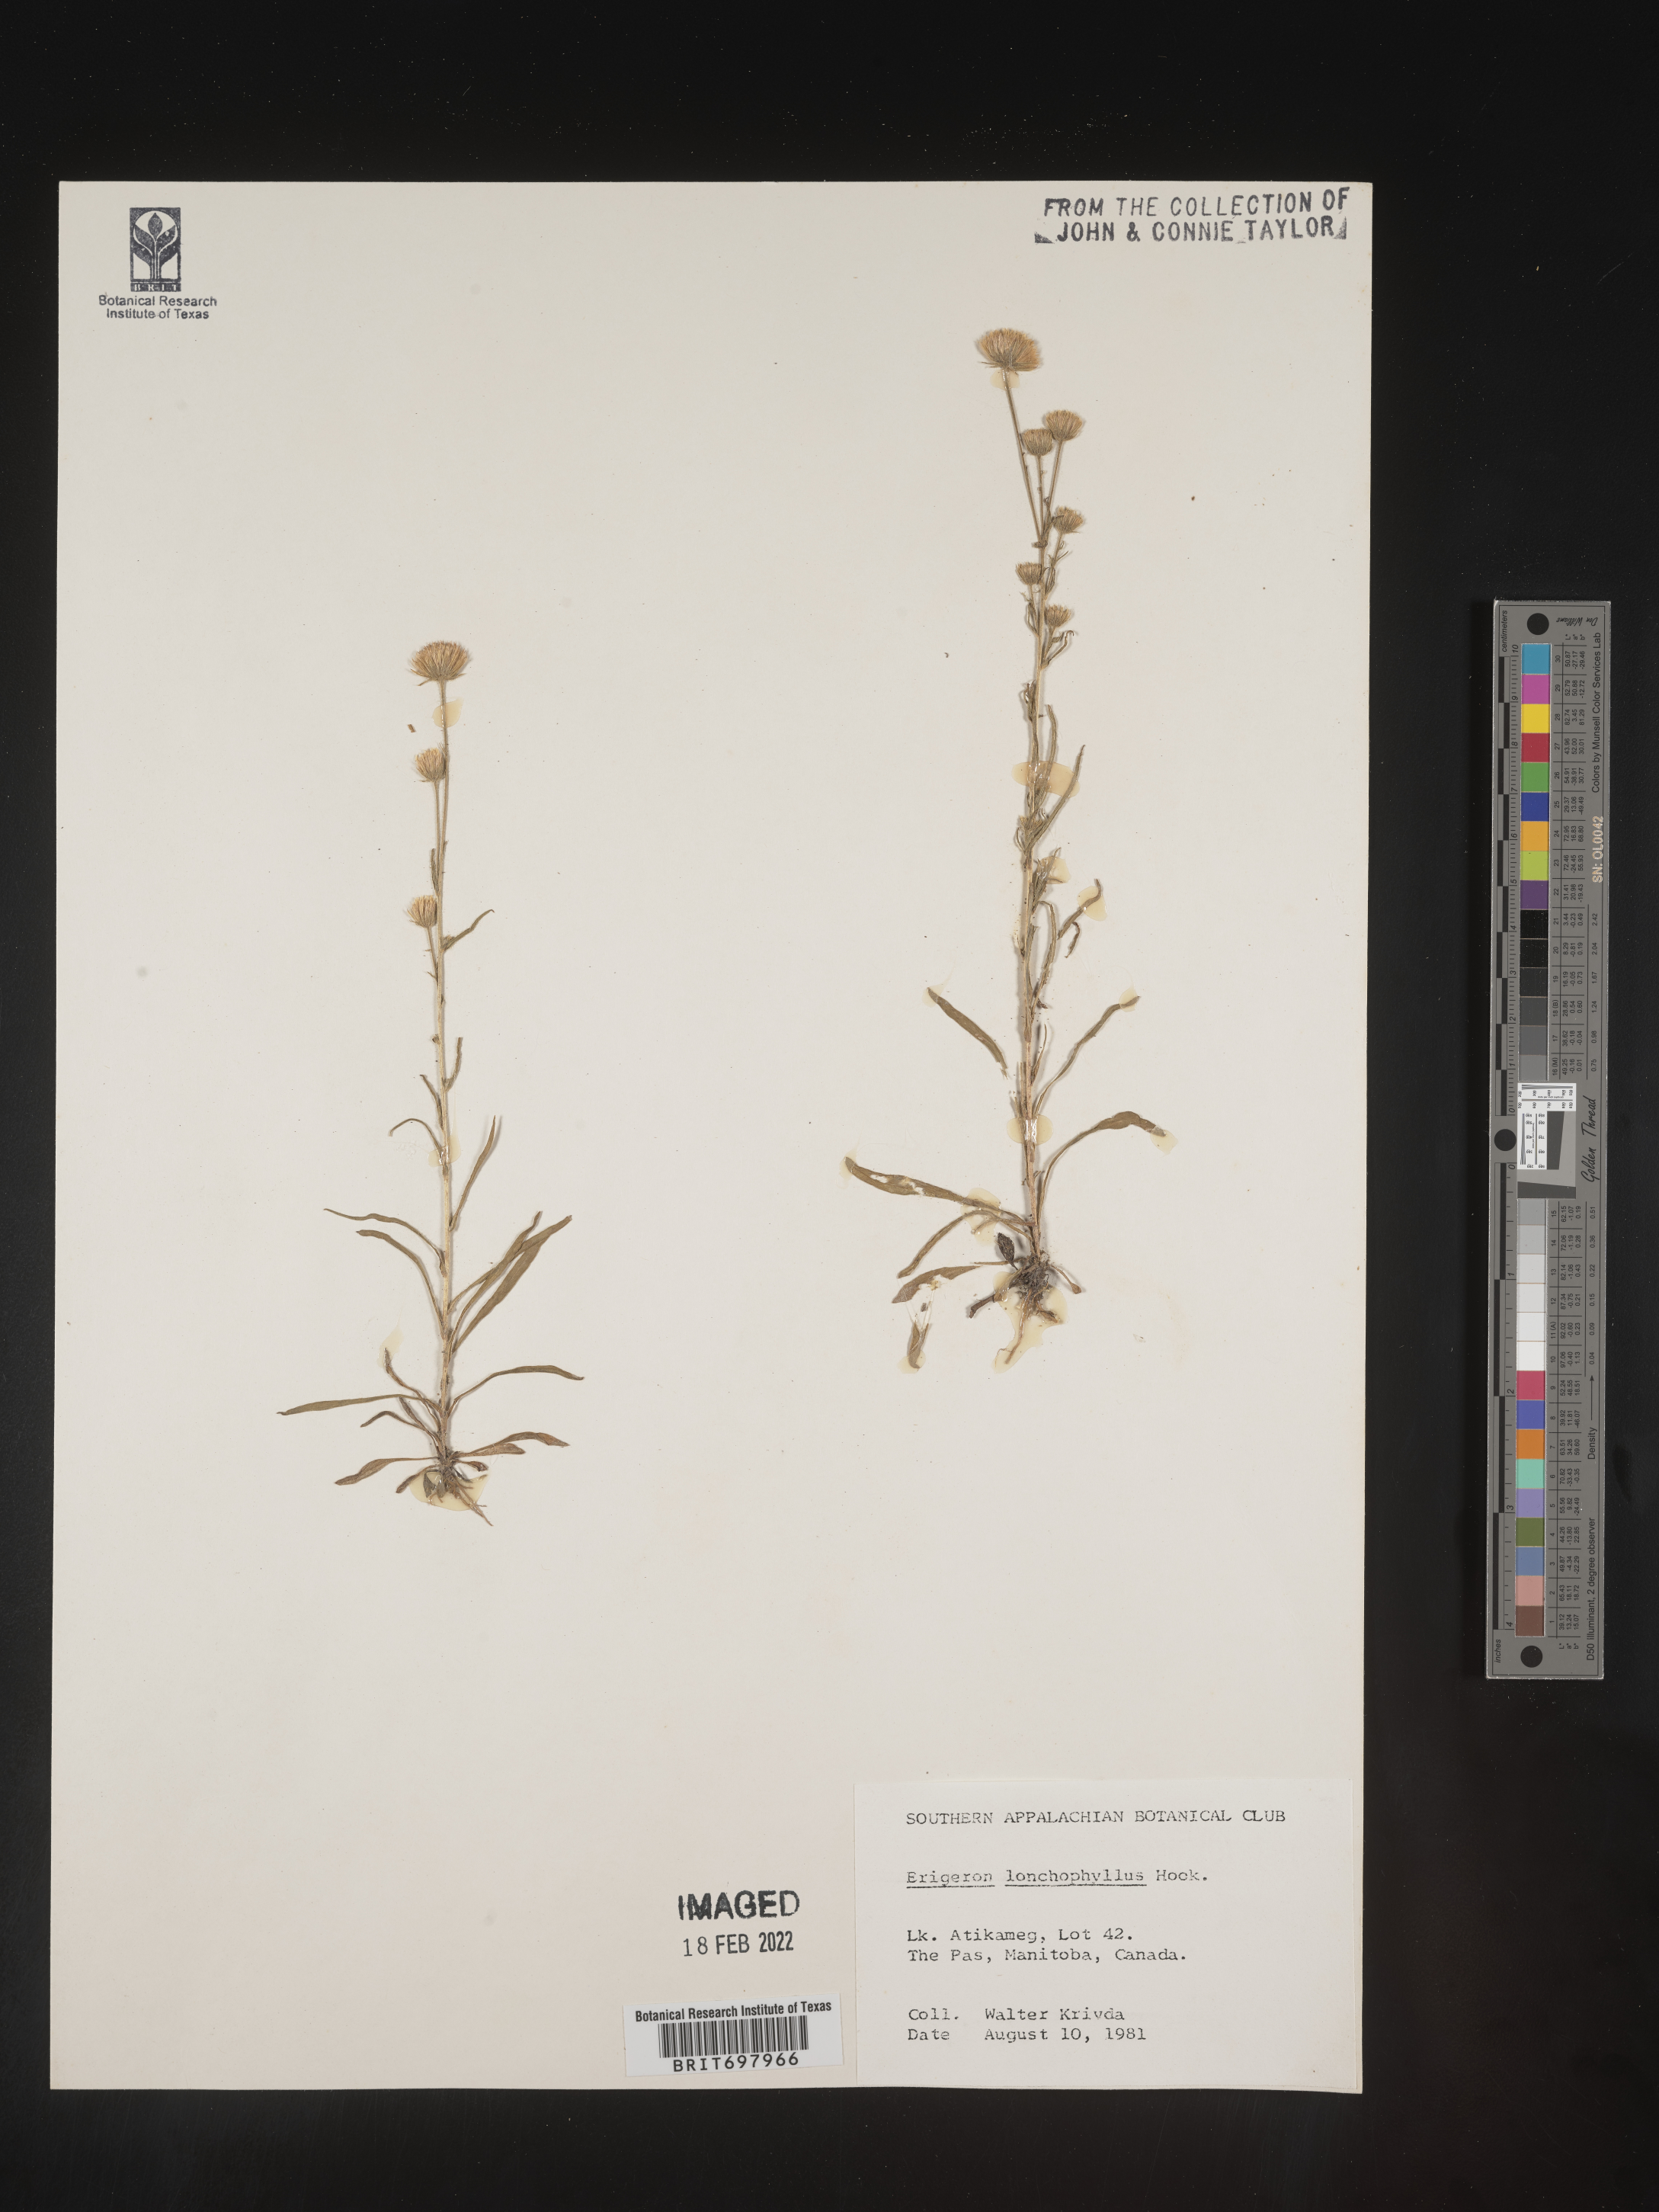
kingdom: Plantae
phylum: Tracheophyta
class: Magnoliopsida
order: Asterales
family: Asteraceae
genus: Erigeron
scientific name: Erigeron lonchophyllus
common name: Short-ray fleabane
